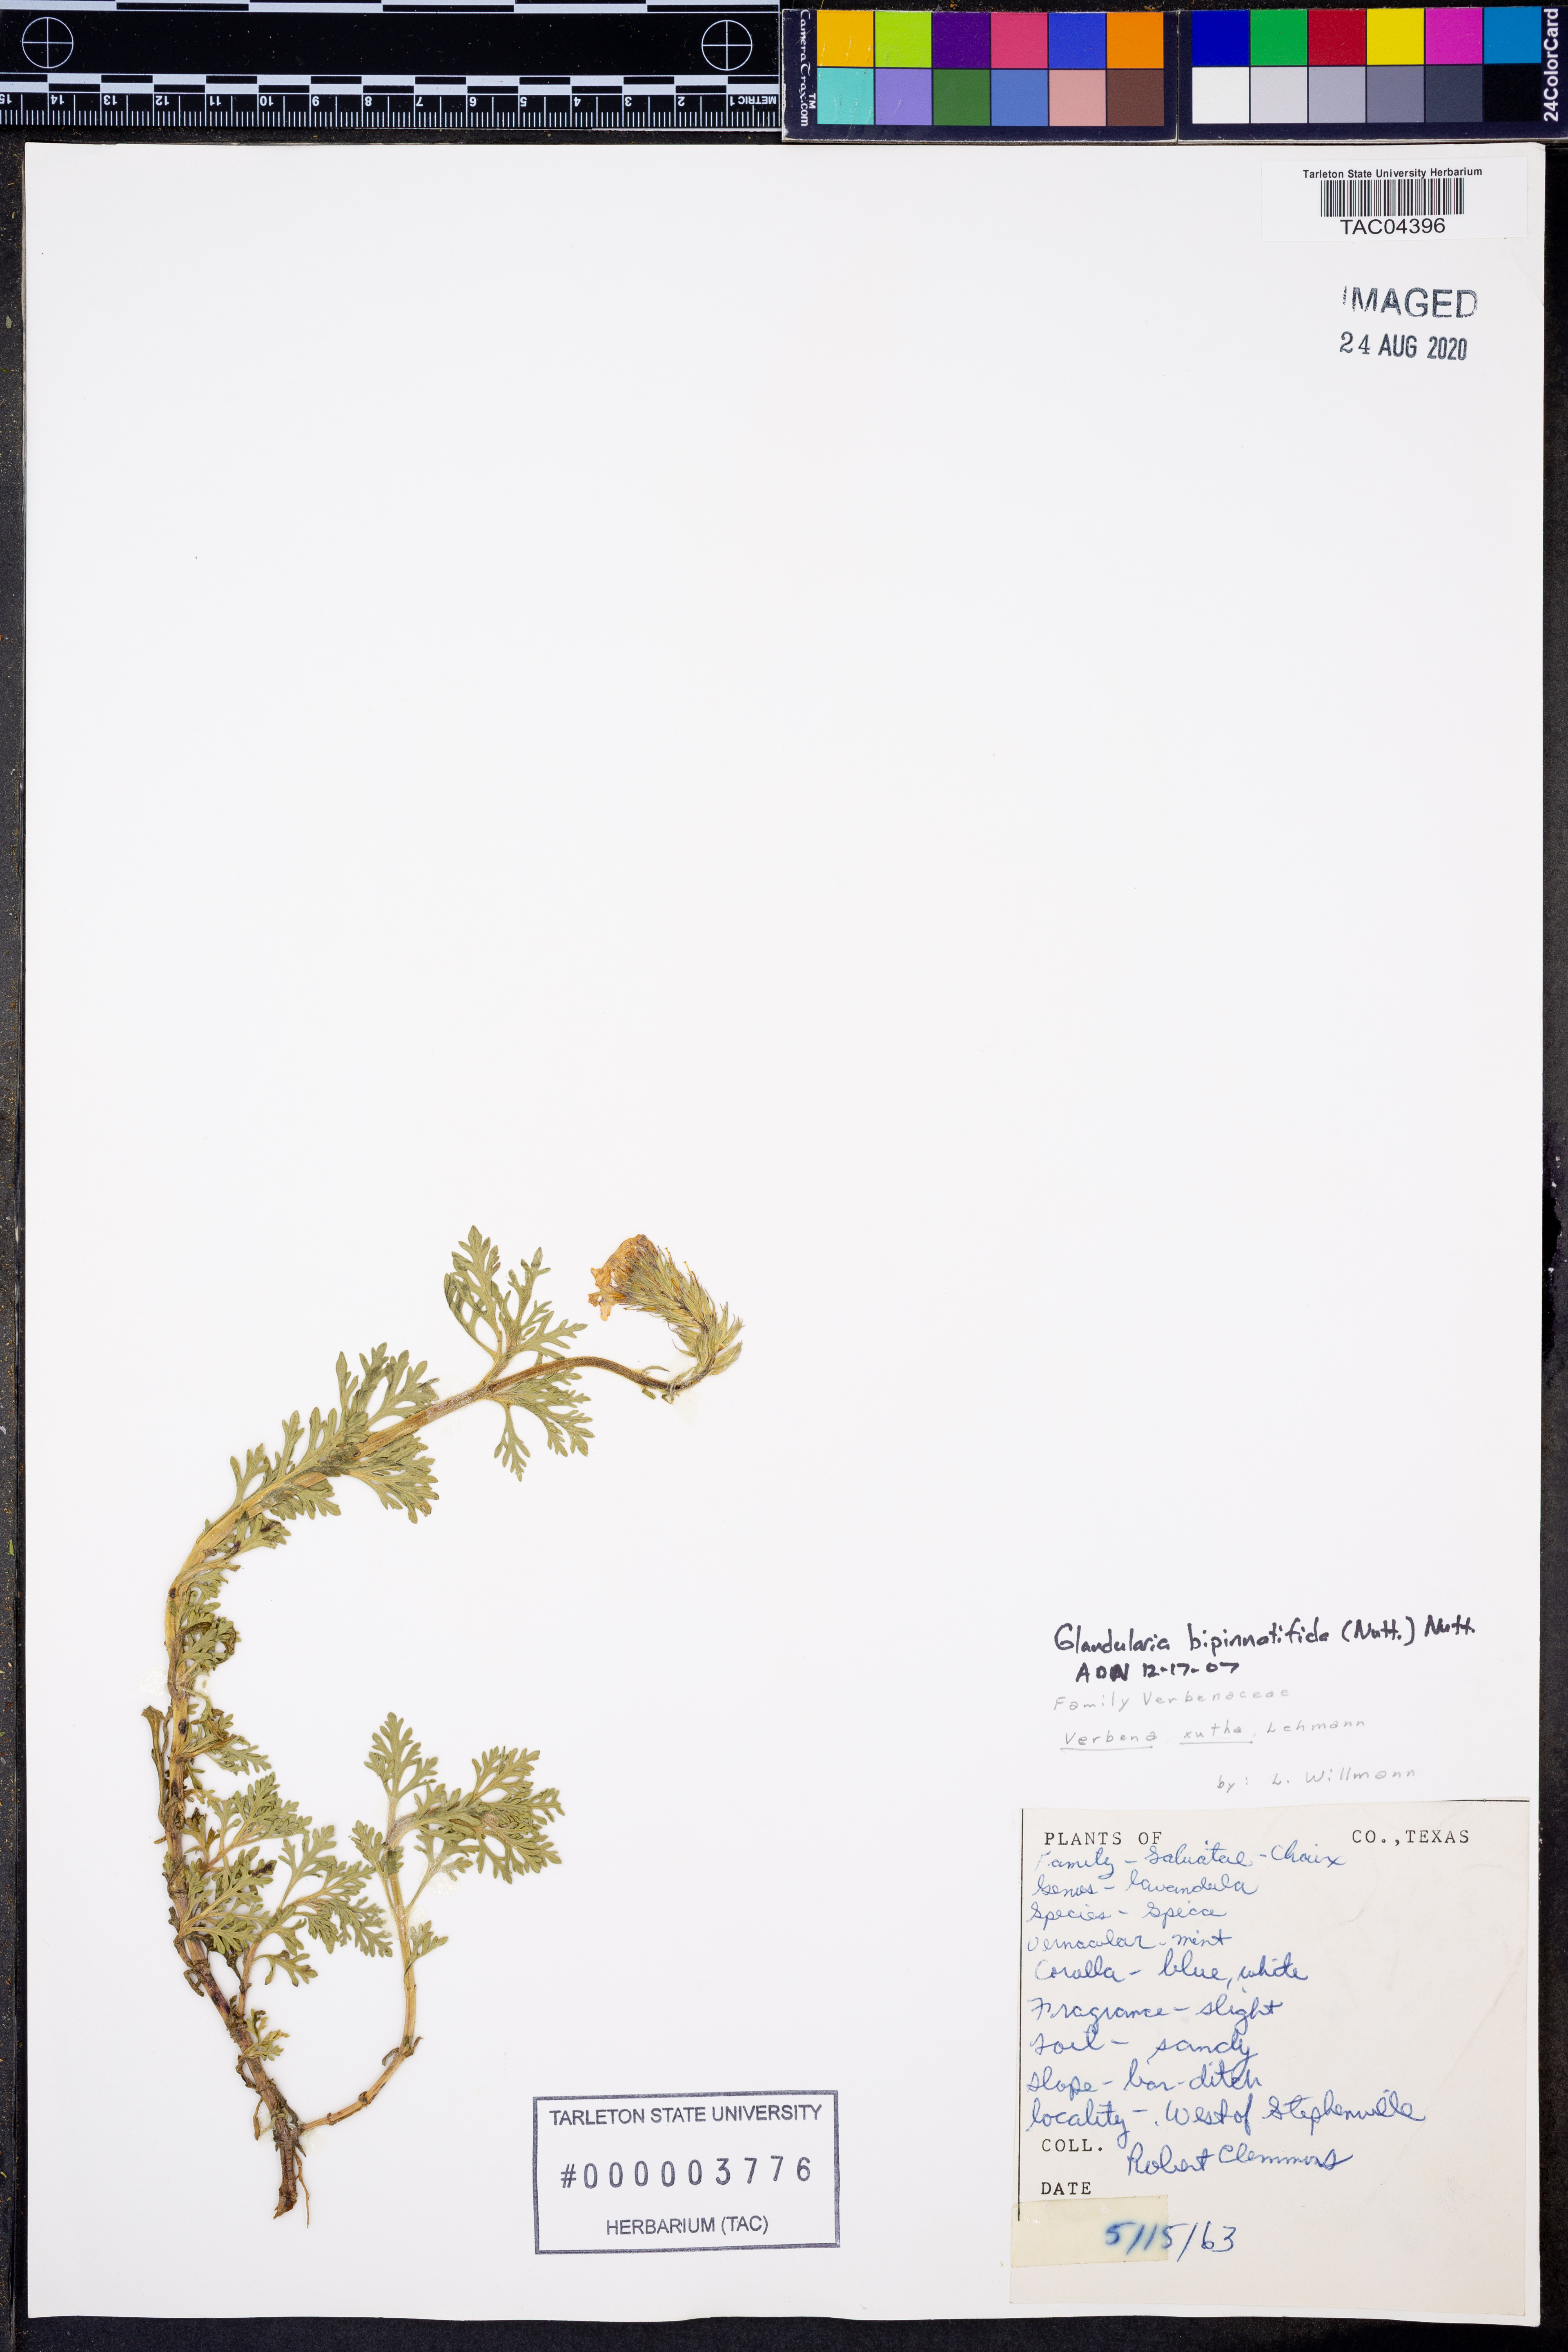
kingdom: Plantae
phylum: Tracheophyta
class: Magnoliopsida
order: Lamiales
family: Verbenaceae
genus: Verbena
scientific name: Verbena bipinnatifida
